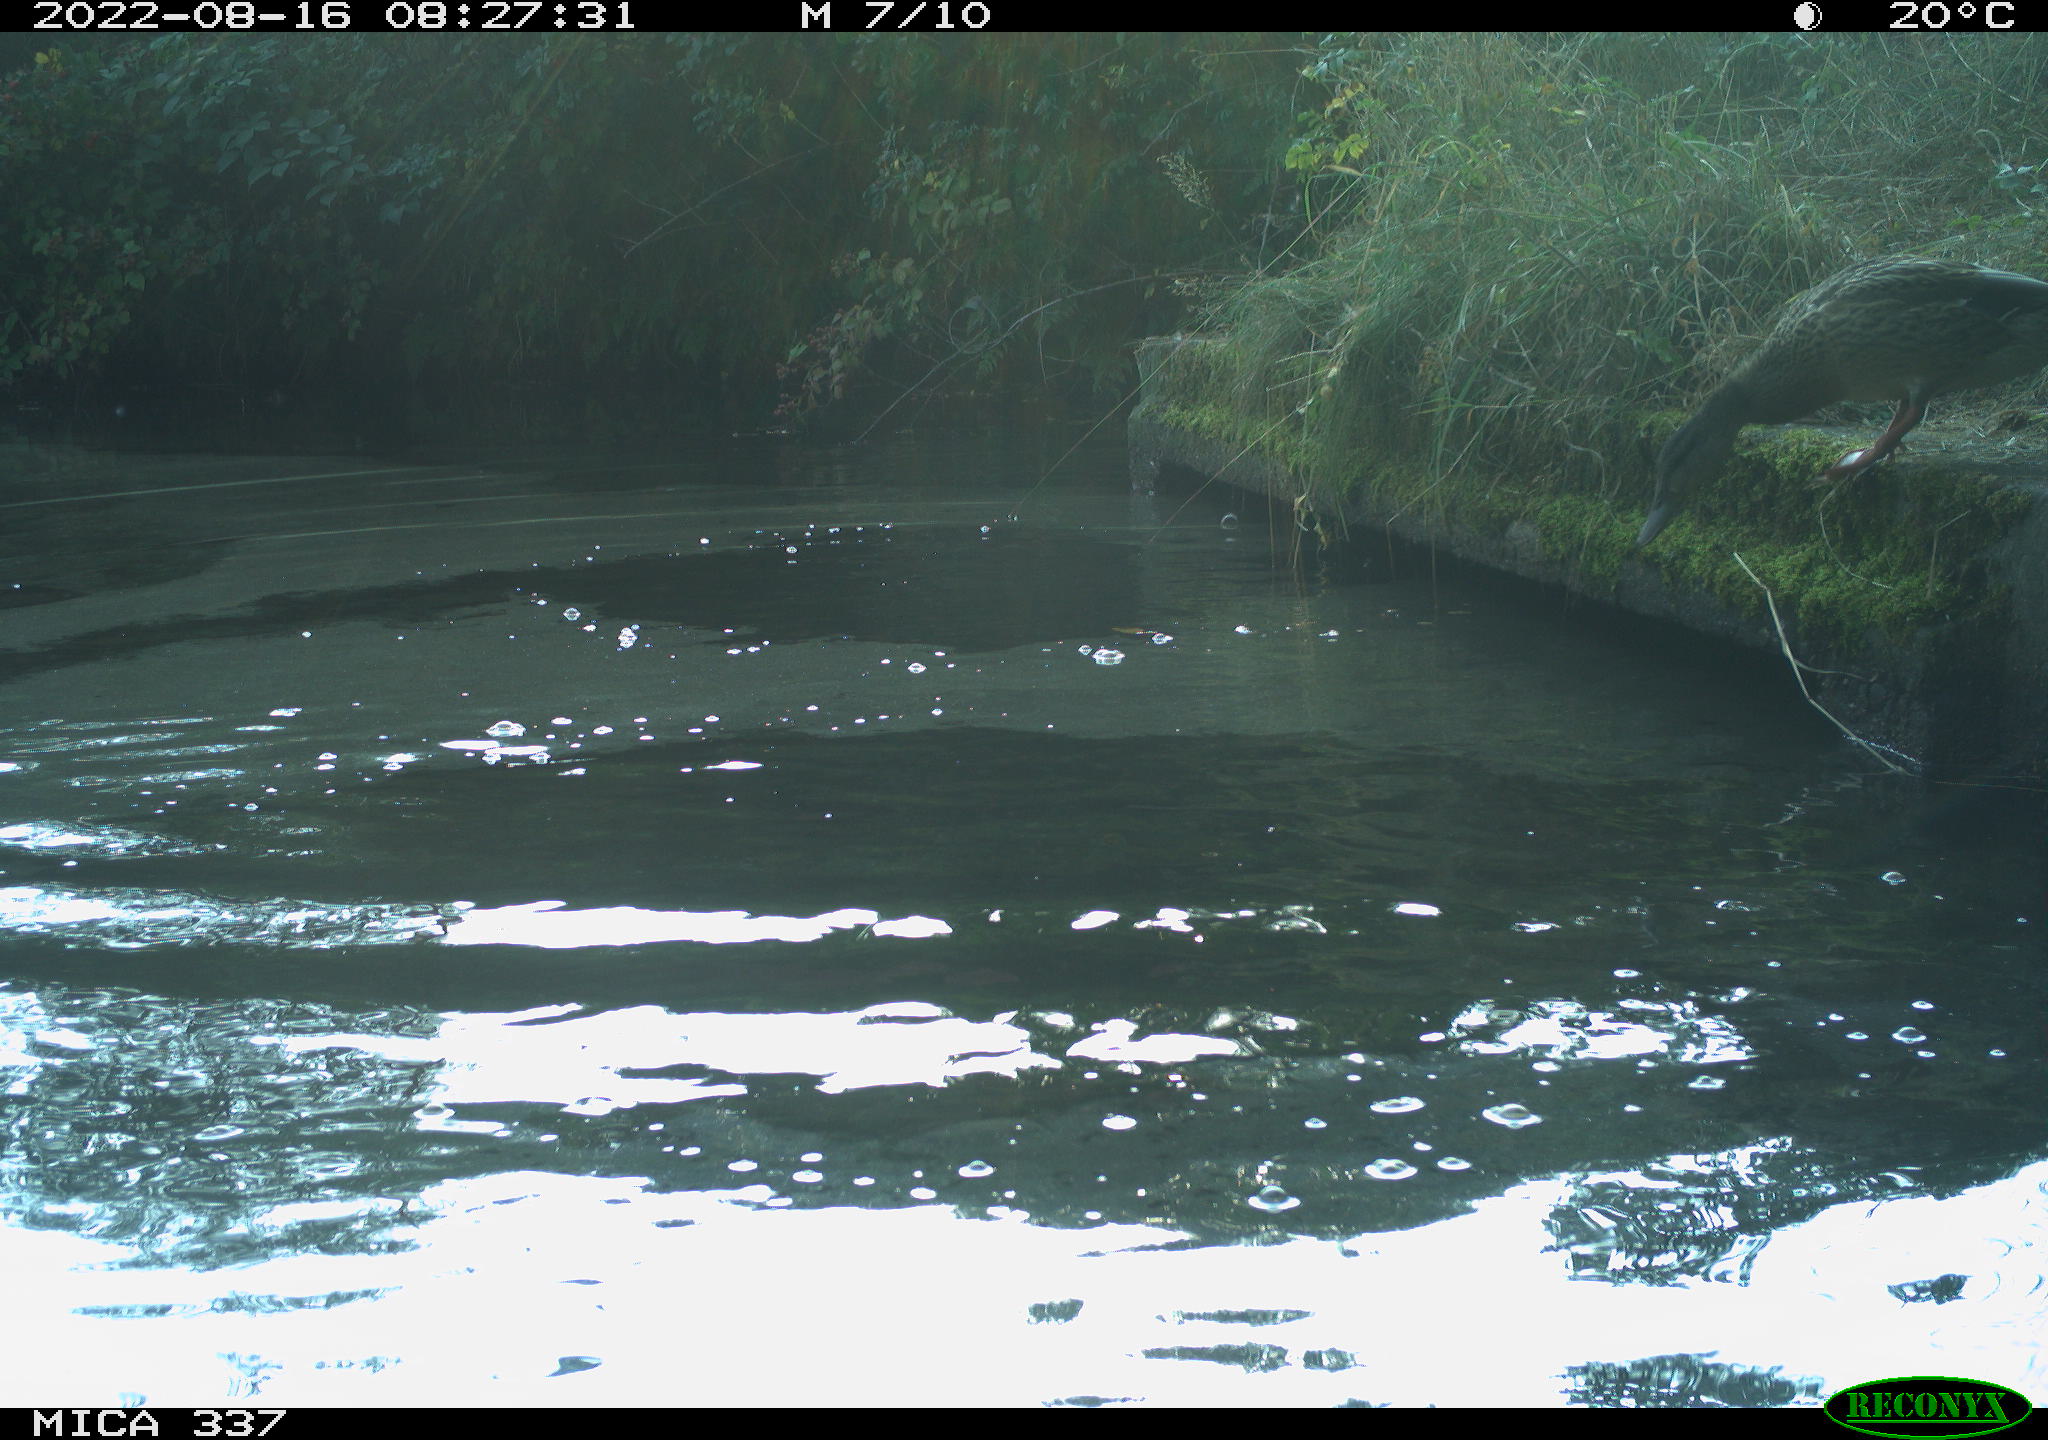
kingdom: Animalia
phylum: Chordata
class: Aves
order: Anseriformes
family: Anatidae
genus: Anas
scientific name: Anas platyrhynchos
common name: Mallard
